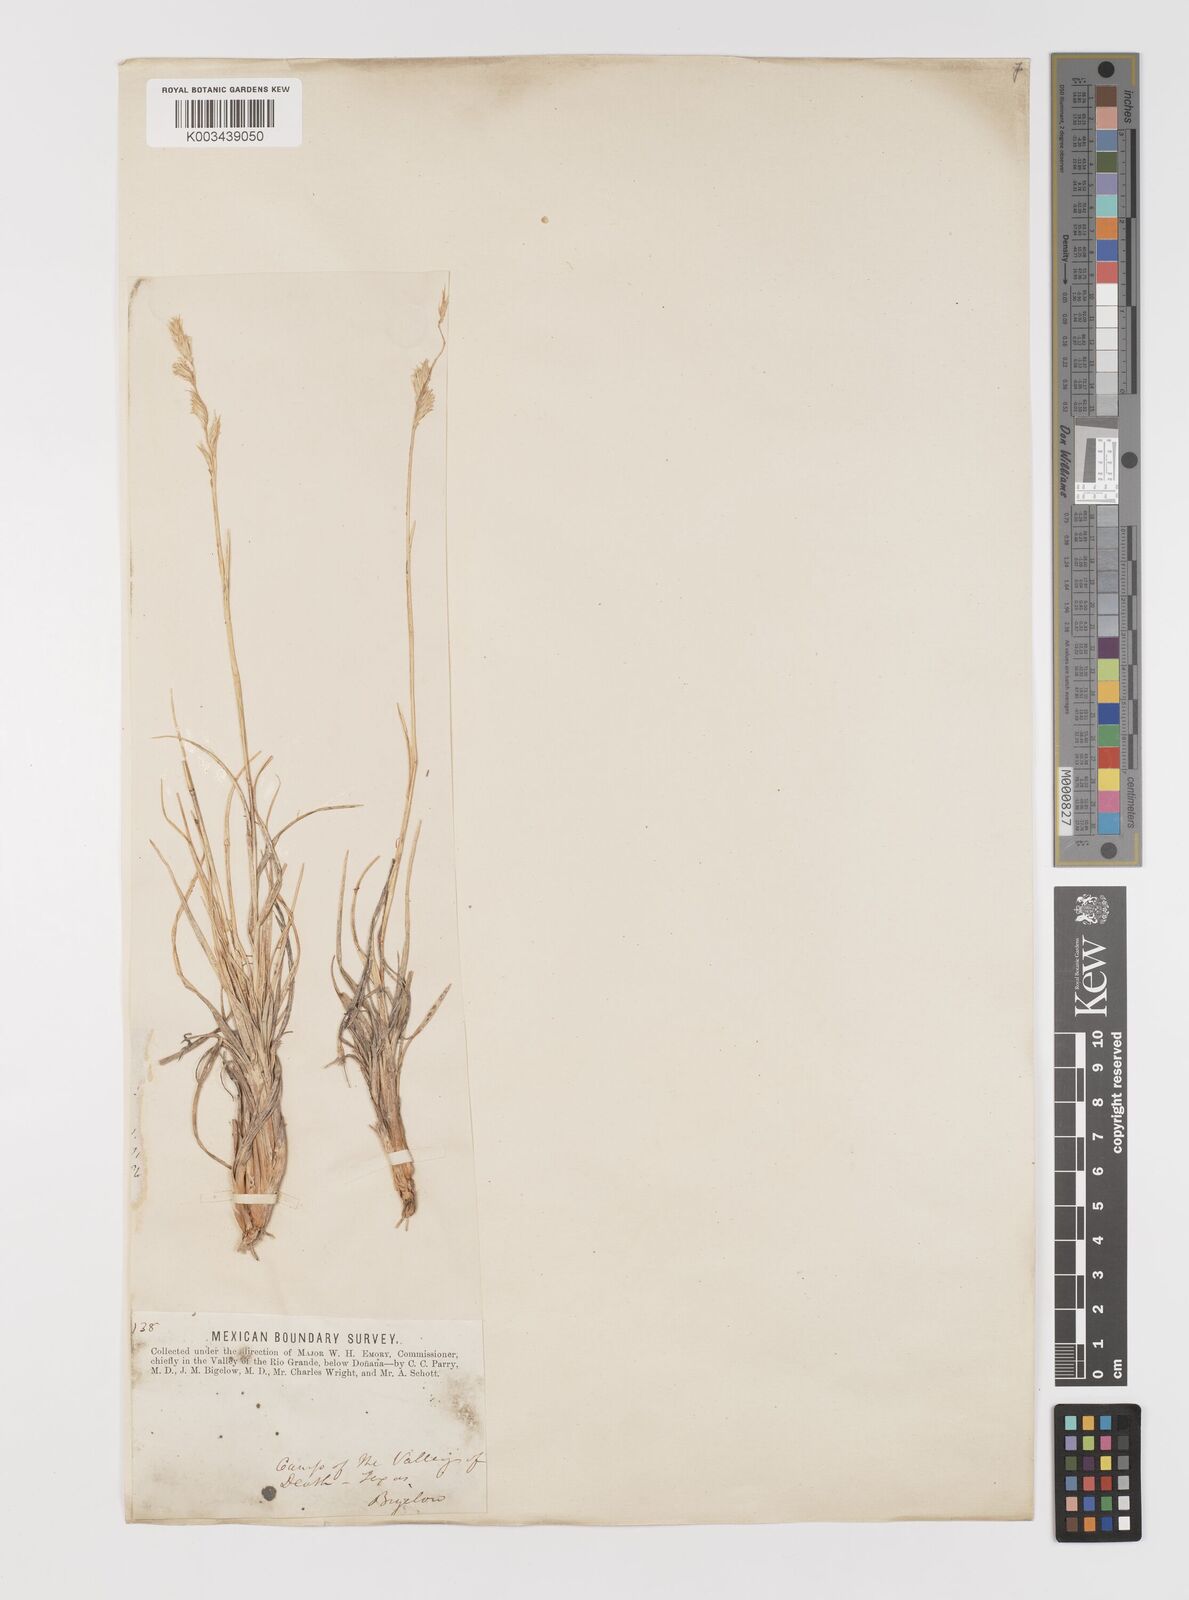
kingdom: Plantae
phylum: Tracheophyta
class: Liliopsida
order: Poales
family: Poaceae
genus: Bouteloua
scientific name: Bouteloua chondrosioides
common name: Sprucetop grama
